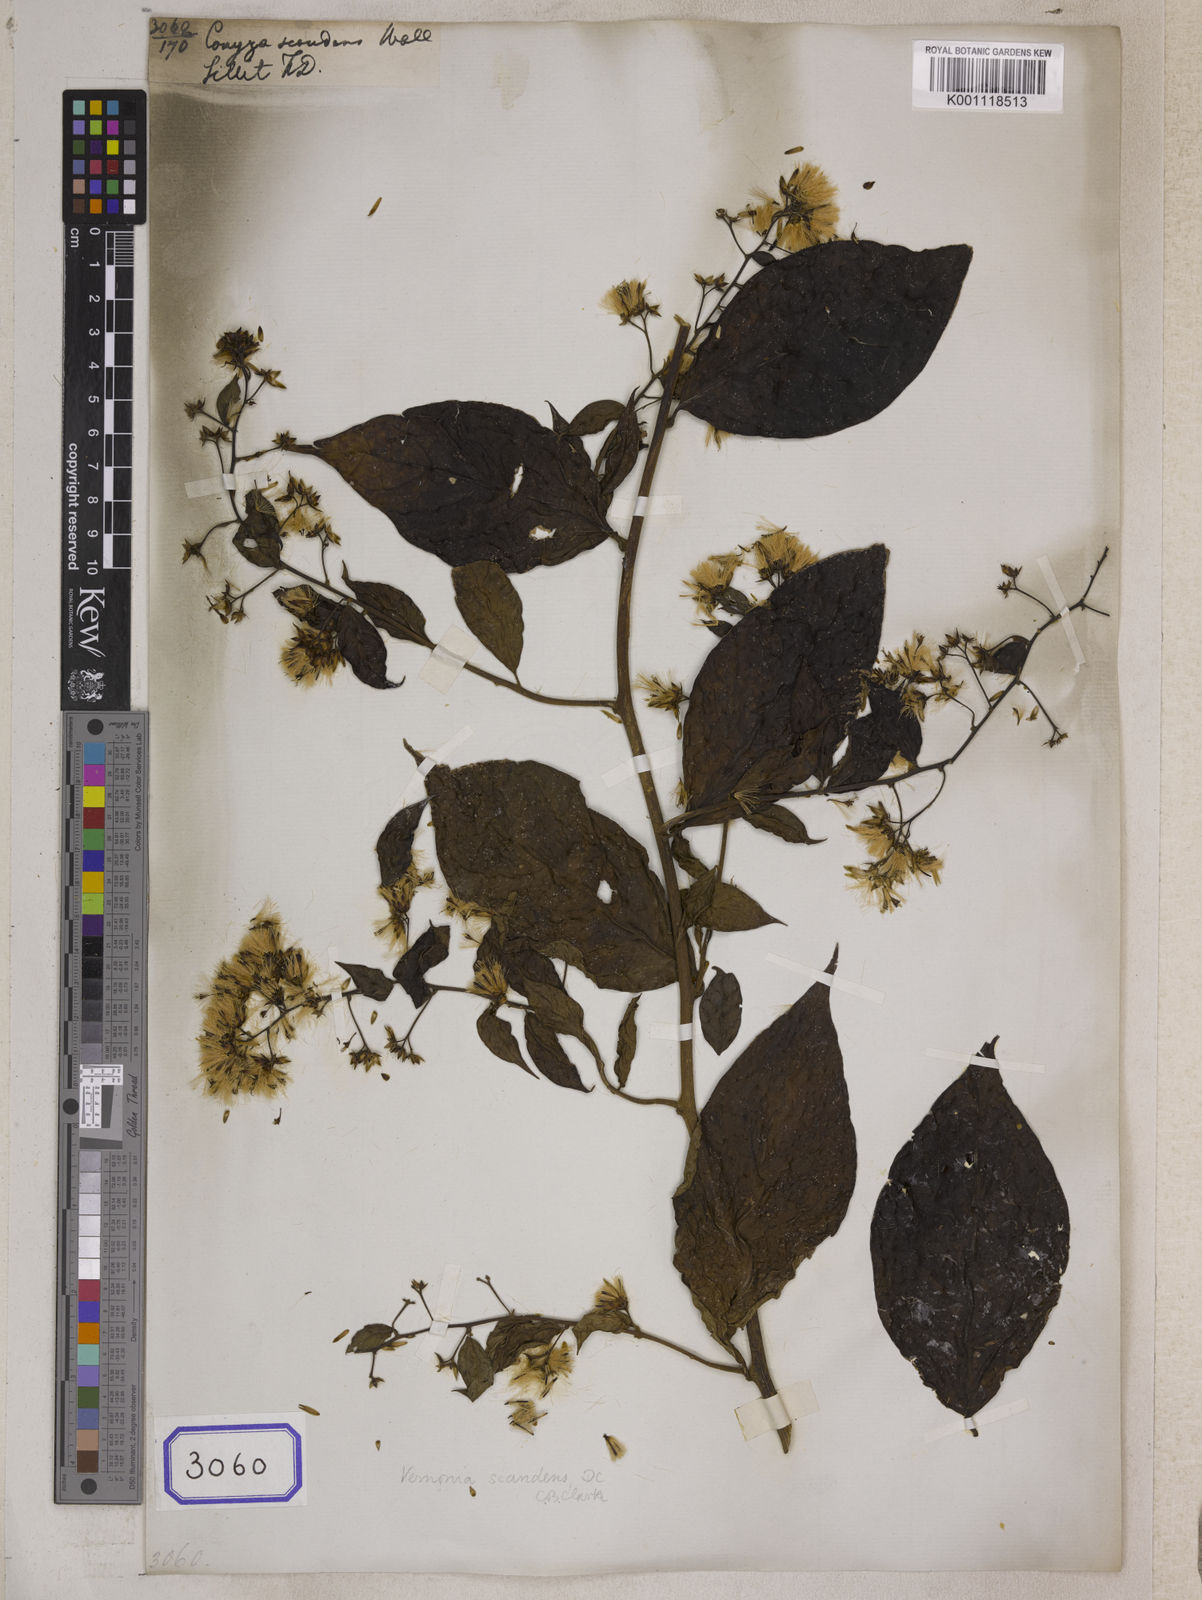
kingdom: Plantae
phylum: Tracheophyta
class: Magnoliopsida
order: Asterales
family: Asteraceae
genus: Decaneuropsis
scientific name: Decaneuropsis obovata
